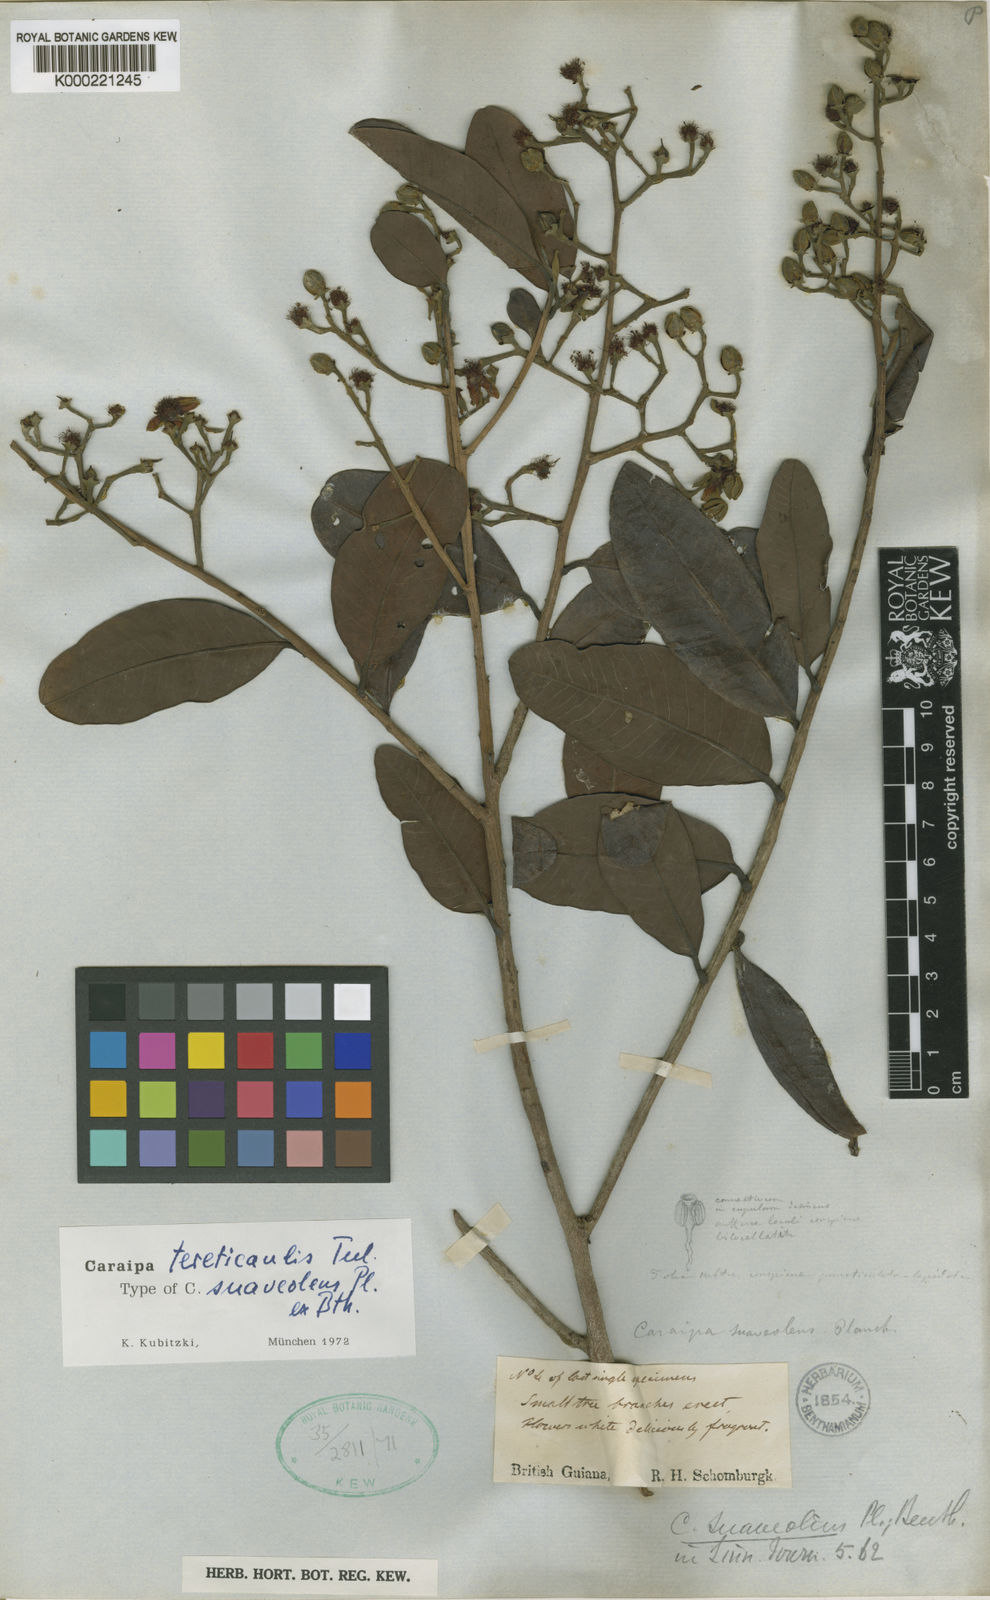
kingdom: Plantae
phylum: Tracheophyta
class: Magnoliopsida
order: Malpighiales
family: Calophyllaceae
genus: Caraipa
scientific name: Caraipa tereticaulis
